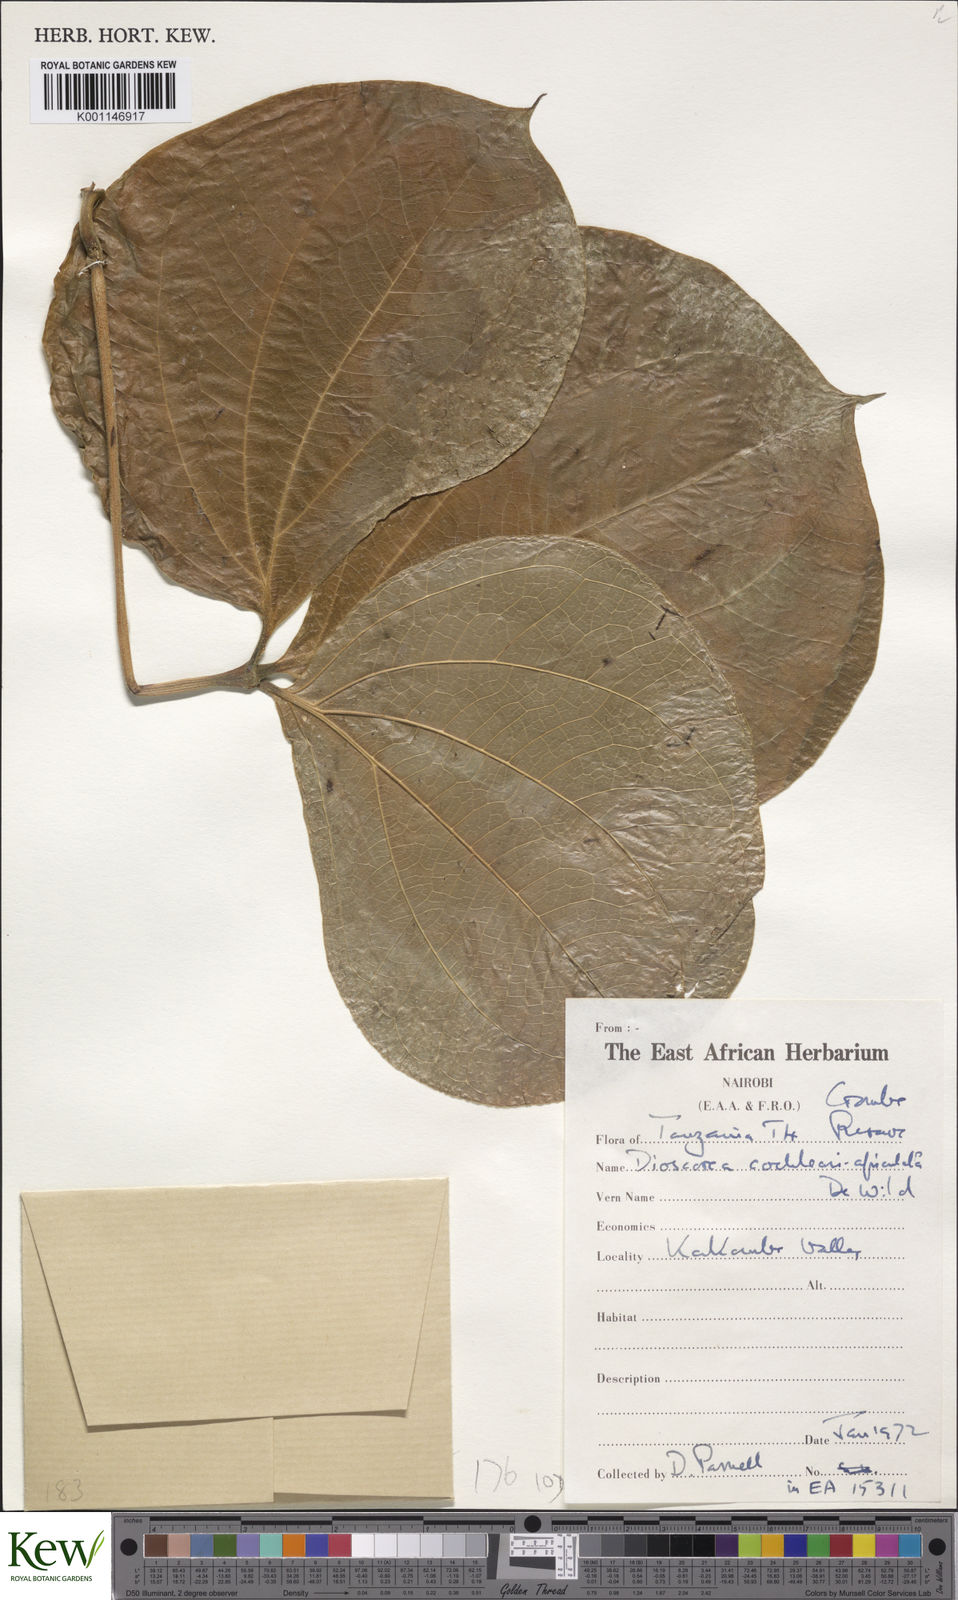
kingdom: Plantae
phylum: Tracheophyta
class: Liliopsida
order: Dioscoreales
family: Dioscoreaceae
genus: Dioscorea
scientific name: Dioscorea cochleariapiculata
